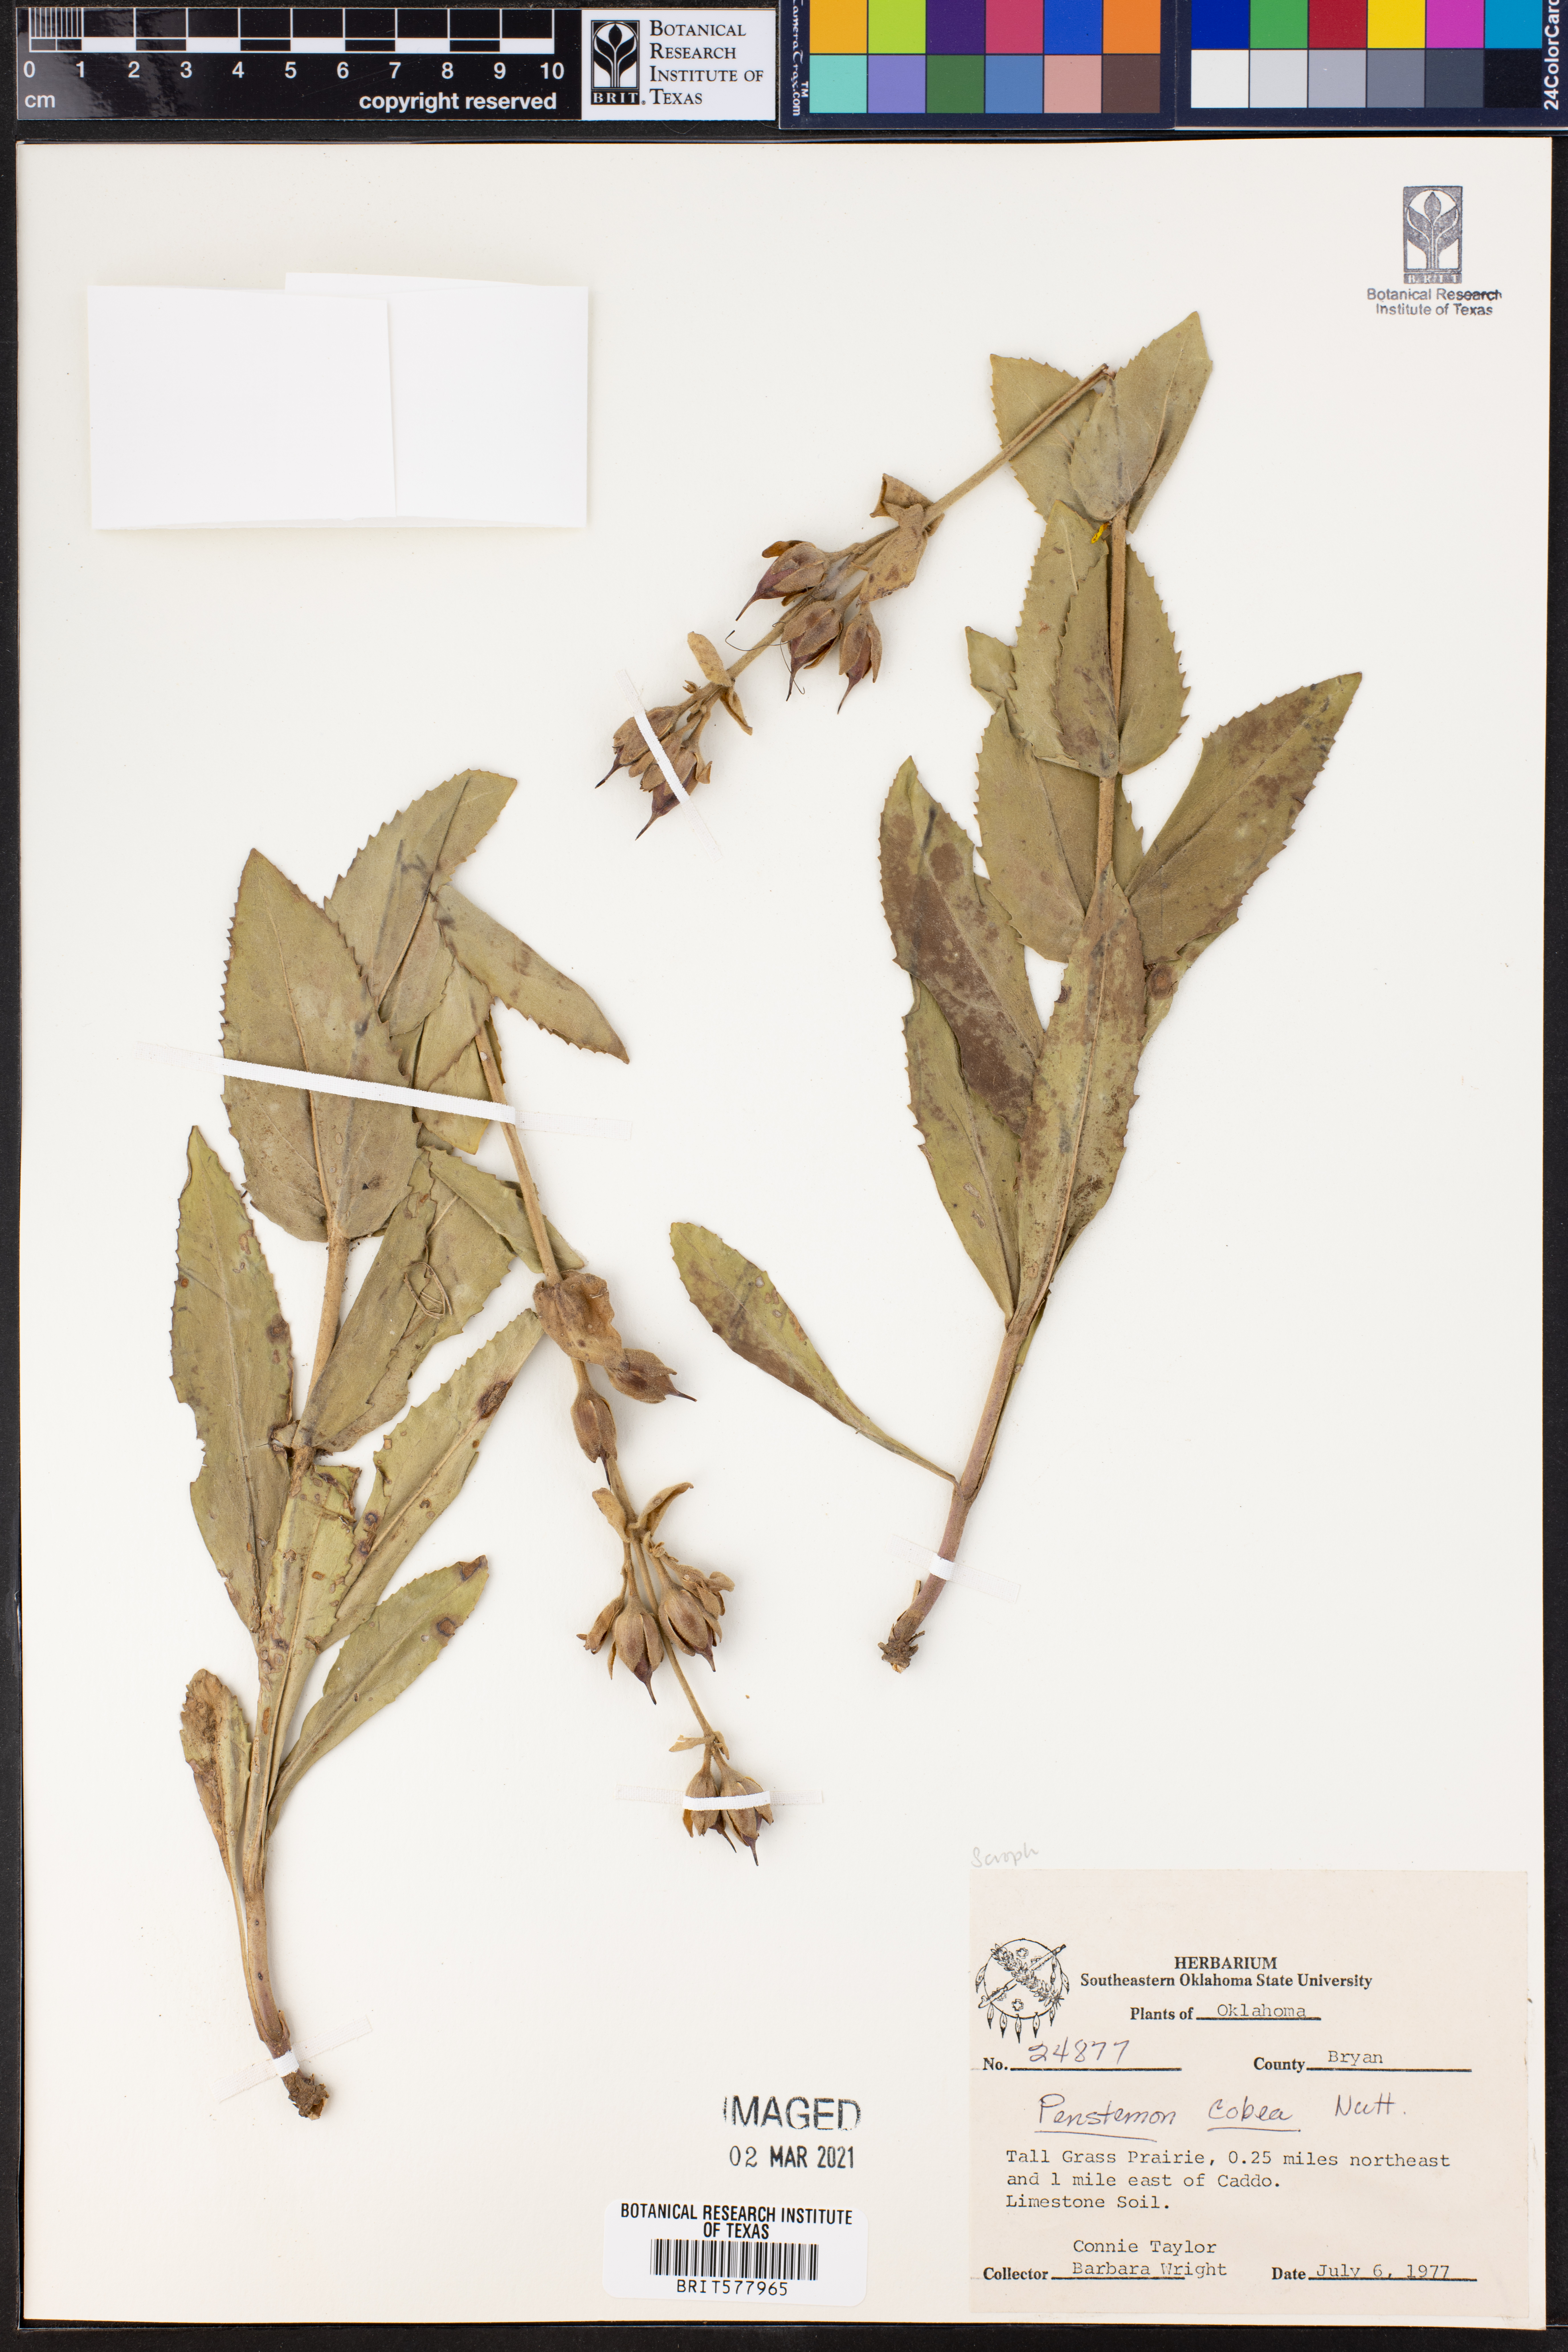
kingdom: Plantae
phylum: Tracheophyta
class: Magnoliopsida
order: Lamiales
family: Plantaginaceae
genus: Penstemon
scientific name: Penstemon cobaea
